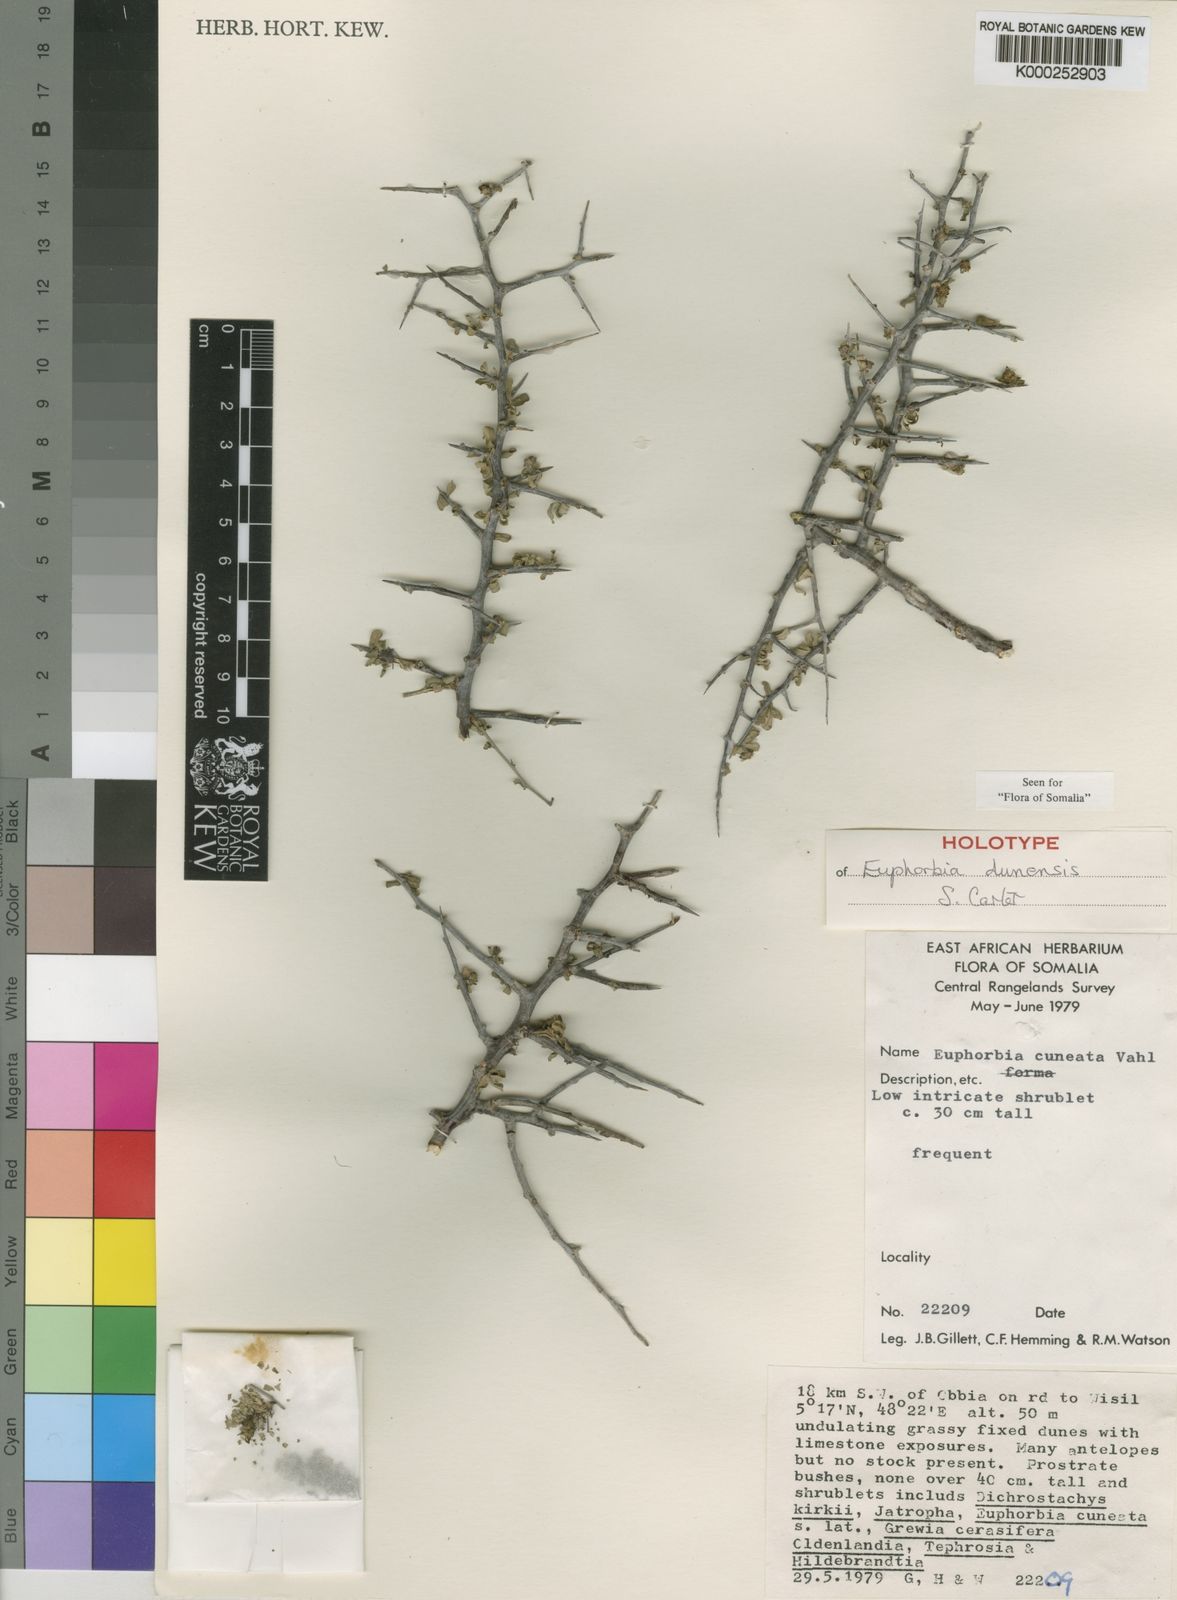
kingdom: Plantae
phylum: Tracheophyta
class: Magnoliopsida
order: Malpighiales
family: Euphorbiaceae
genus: Euphorbia
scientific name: Euphorbia dunensis
